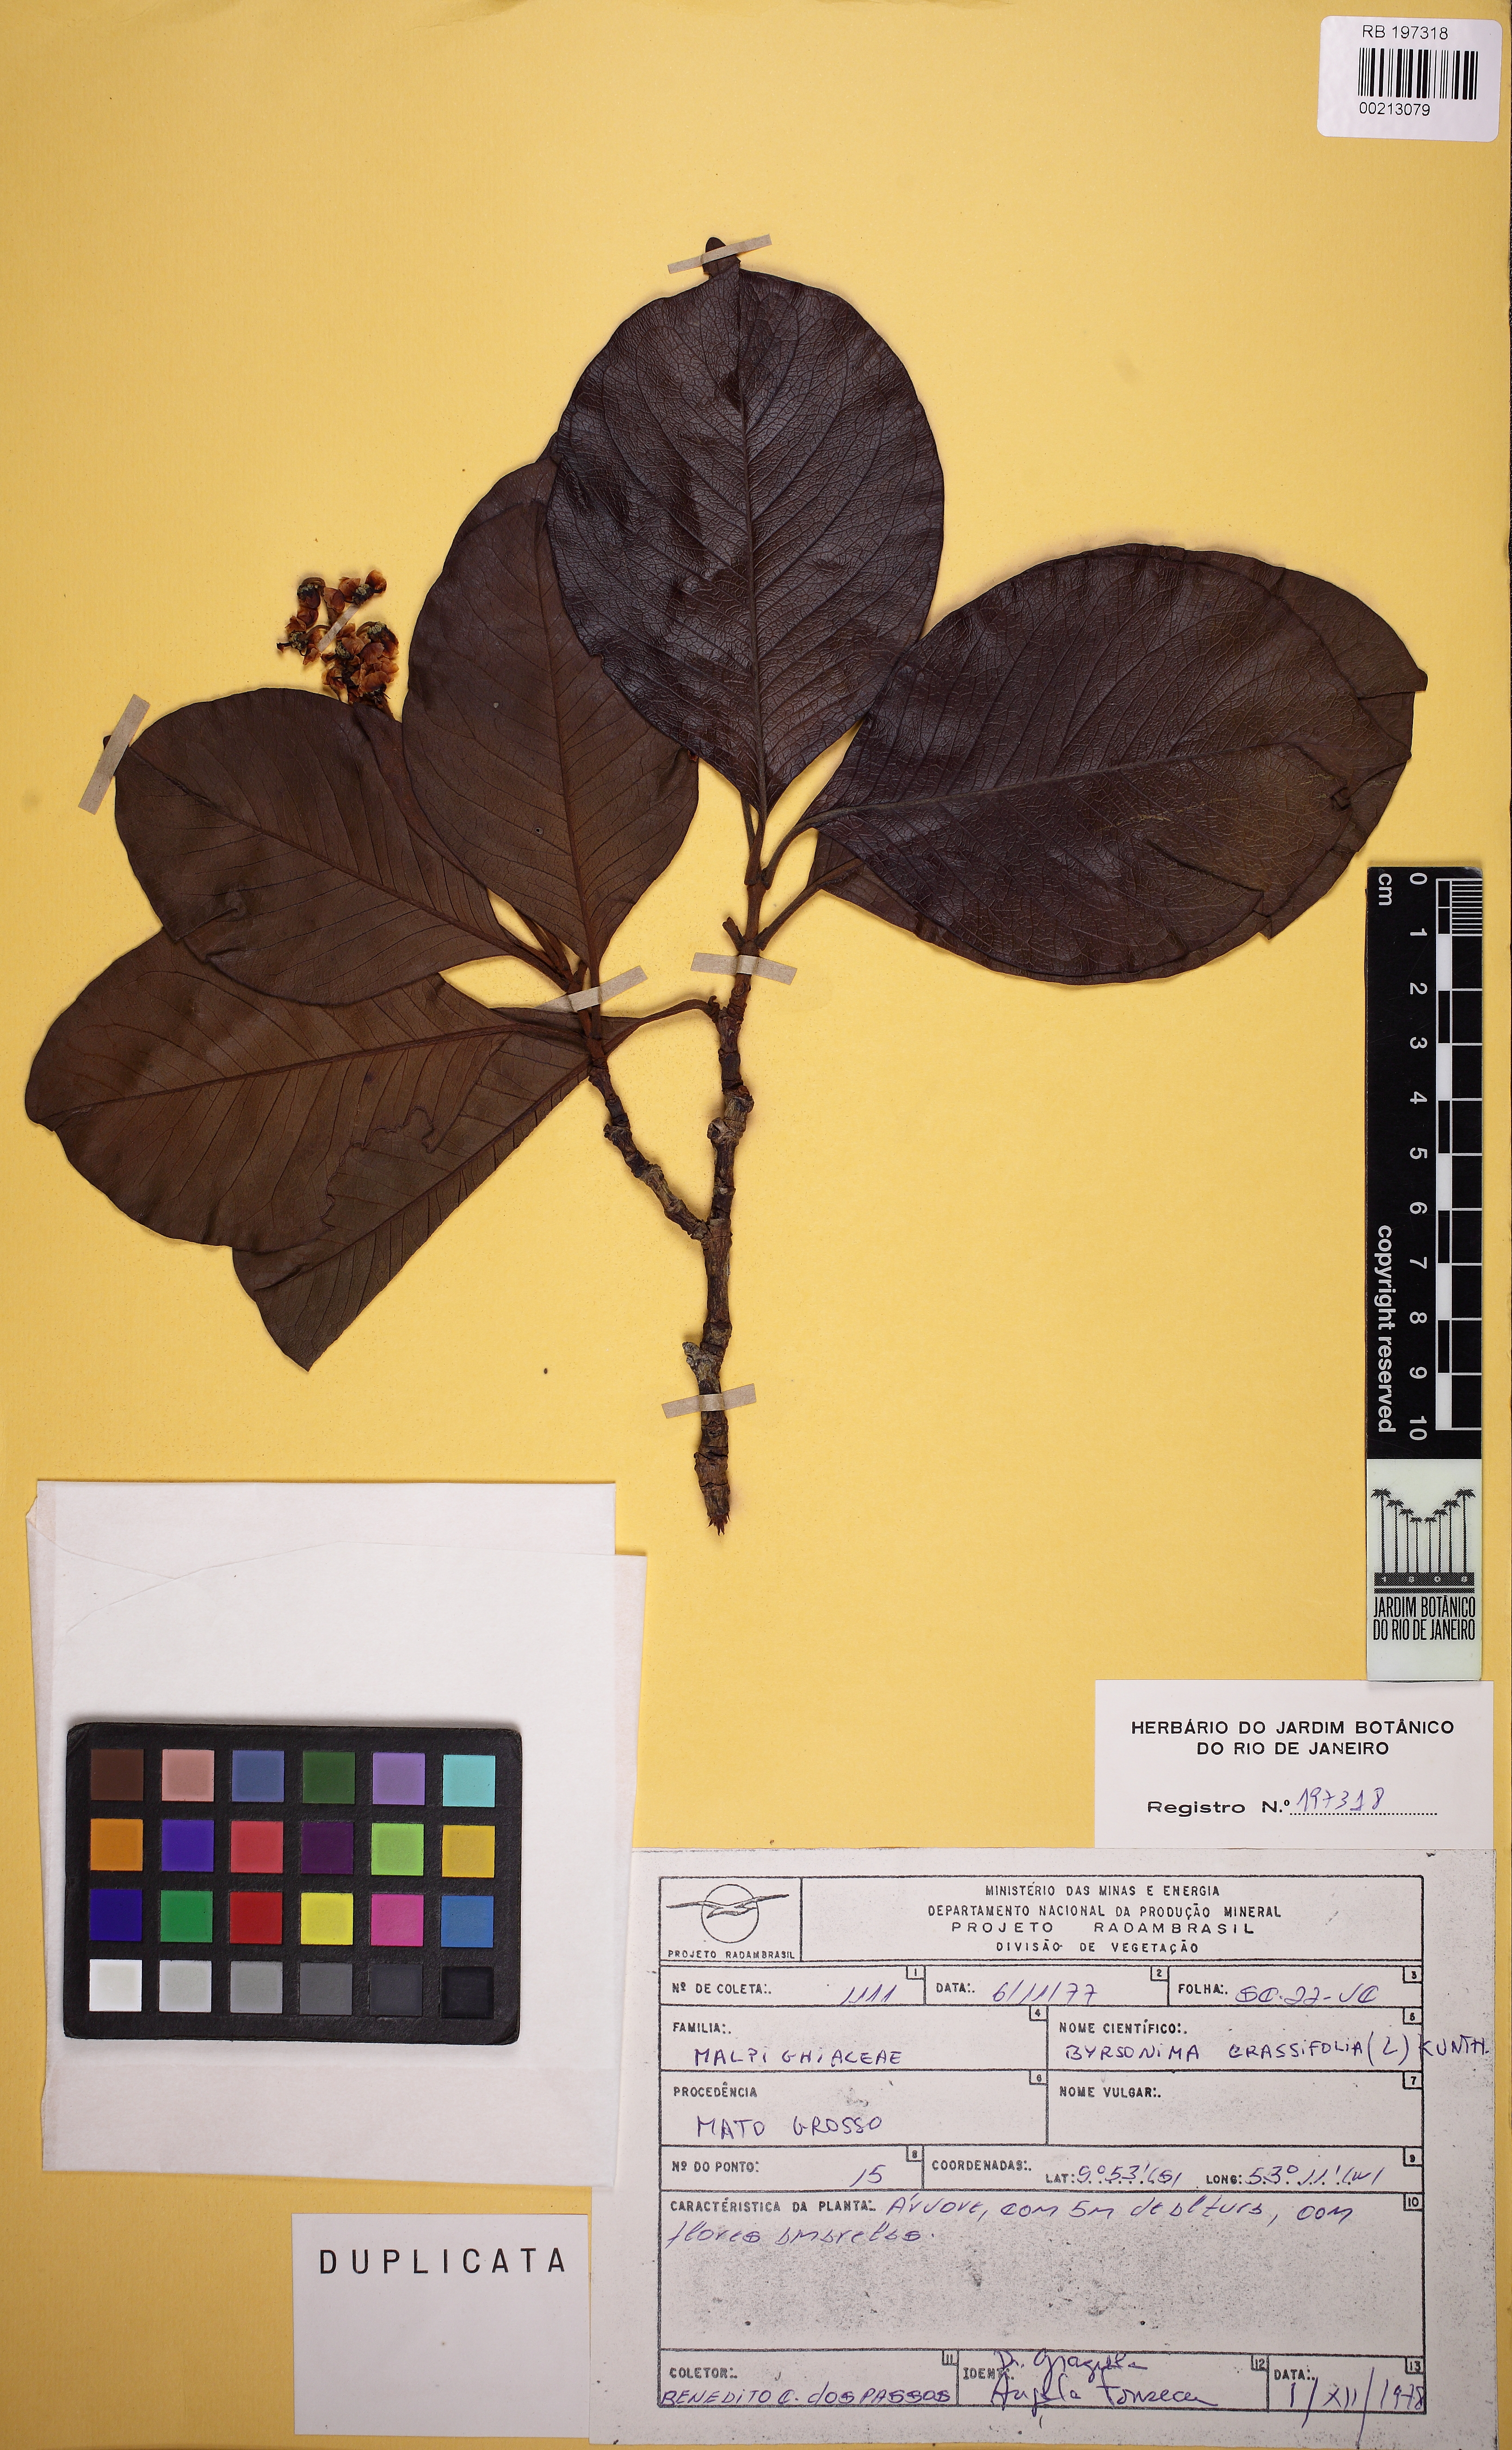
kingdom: Plantae
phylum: Tracheophyta
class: Magnoliopsida
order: Malpighiales
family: Malpighiaceae
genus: Byrsonima
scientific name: Byrsonima crassifolia
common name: Golden spoon
